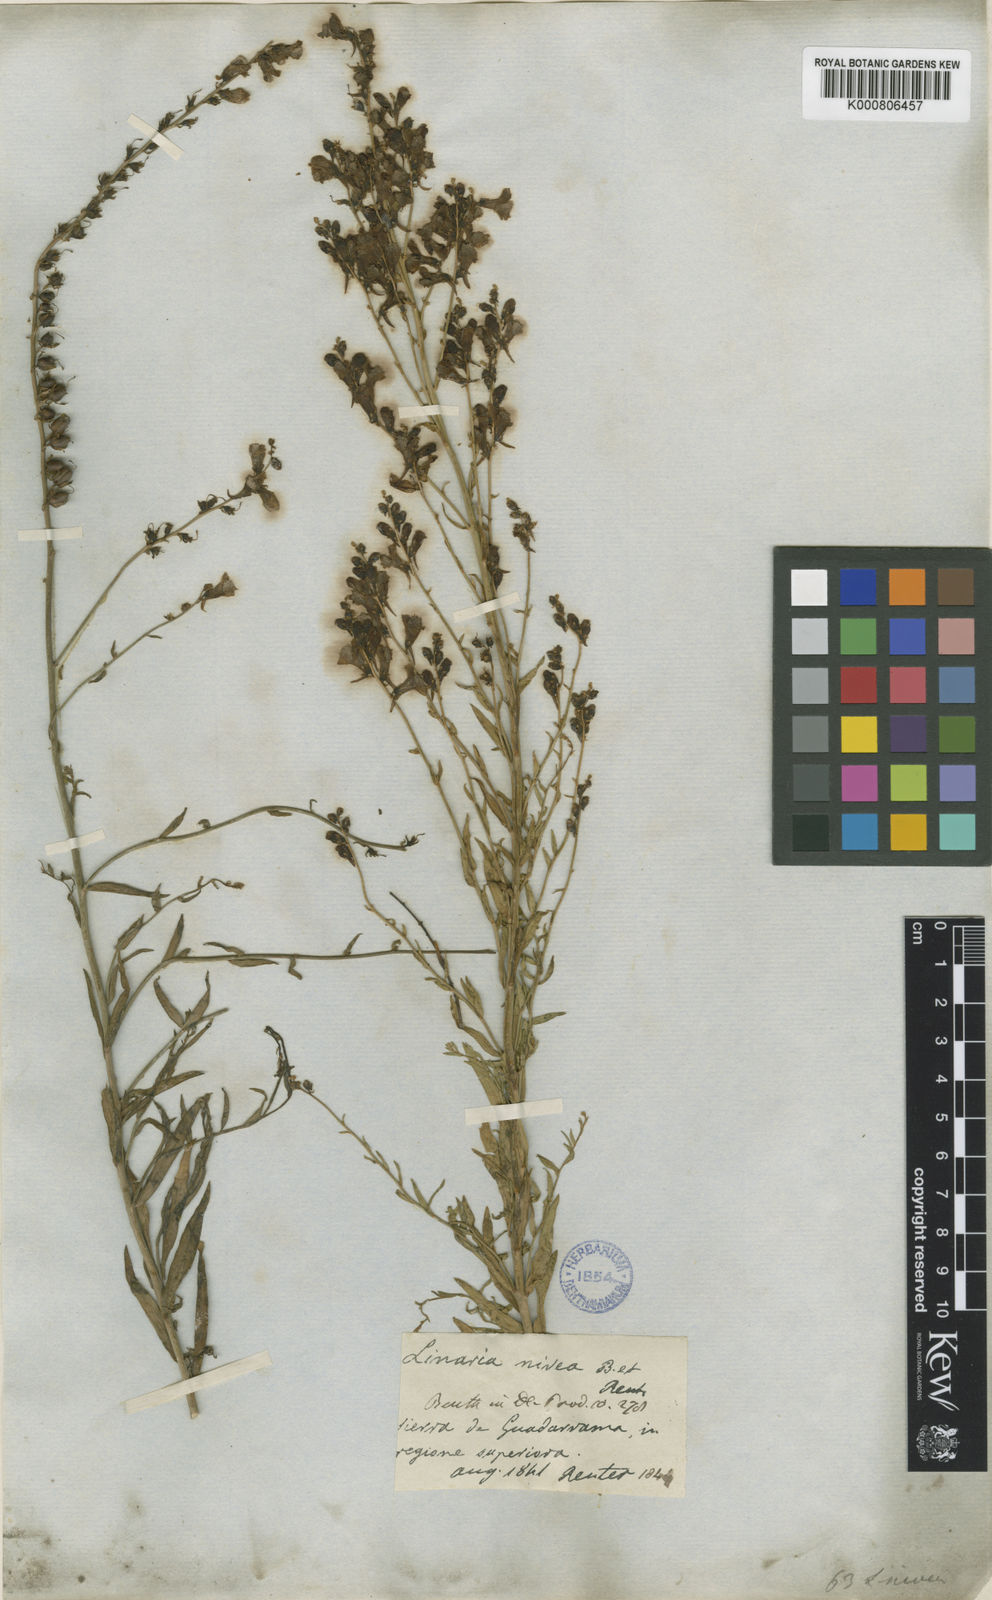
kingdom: Plantae
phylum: Tracheophyta
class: Magnoliopsida
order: Lamiales
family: Plantaginaceae
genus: Linaria
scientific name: Linaria nivea
